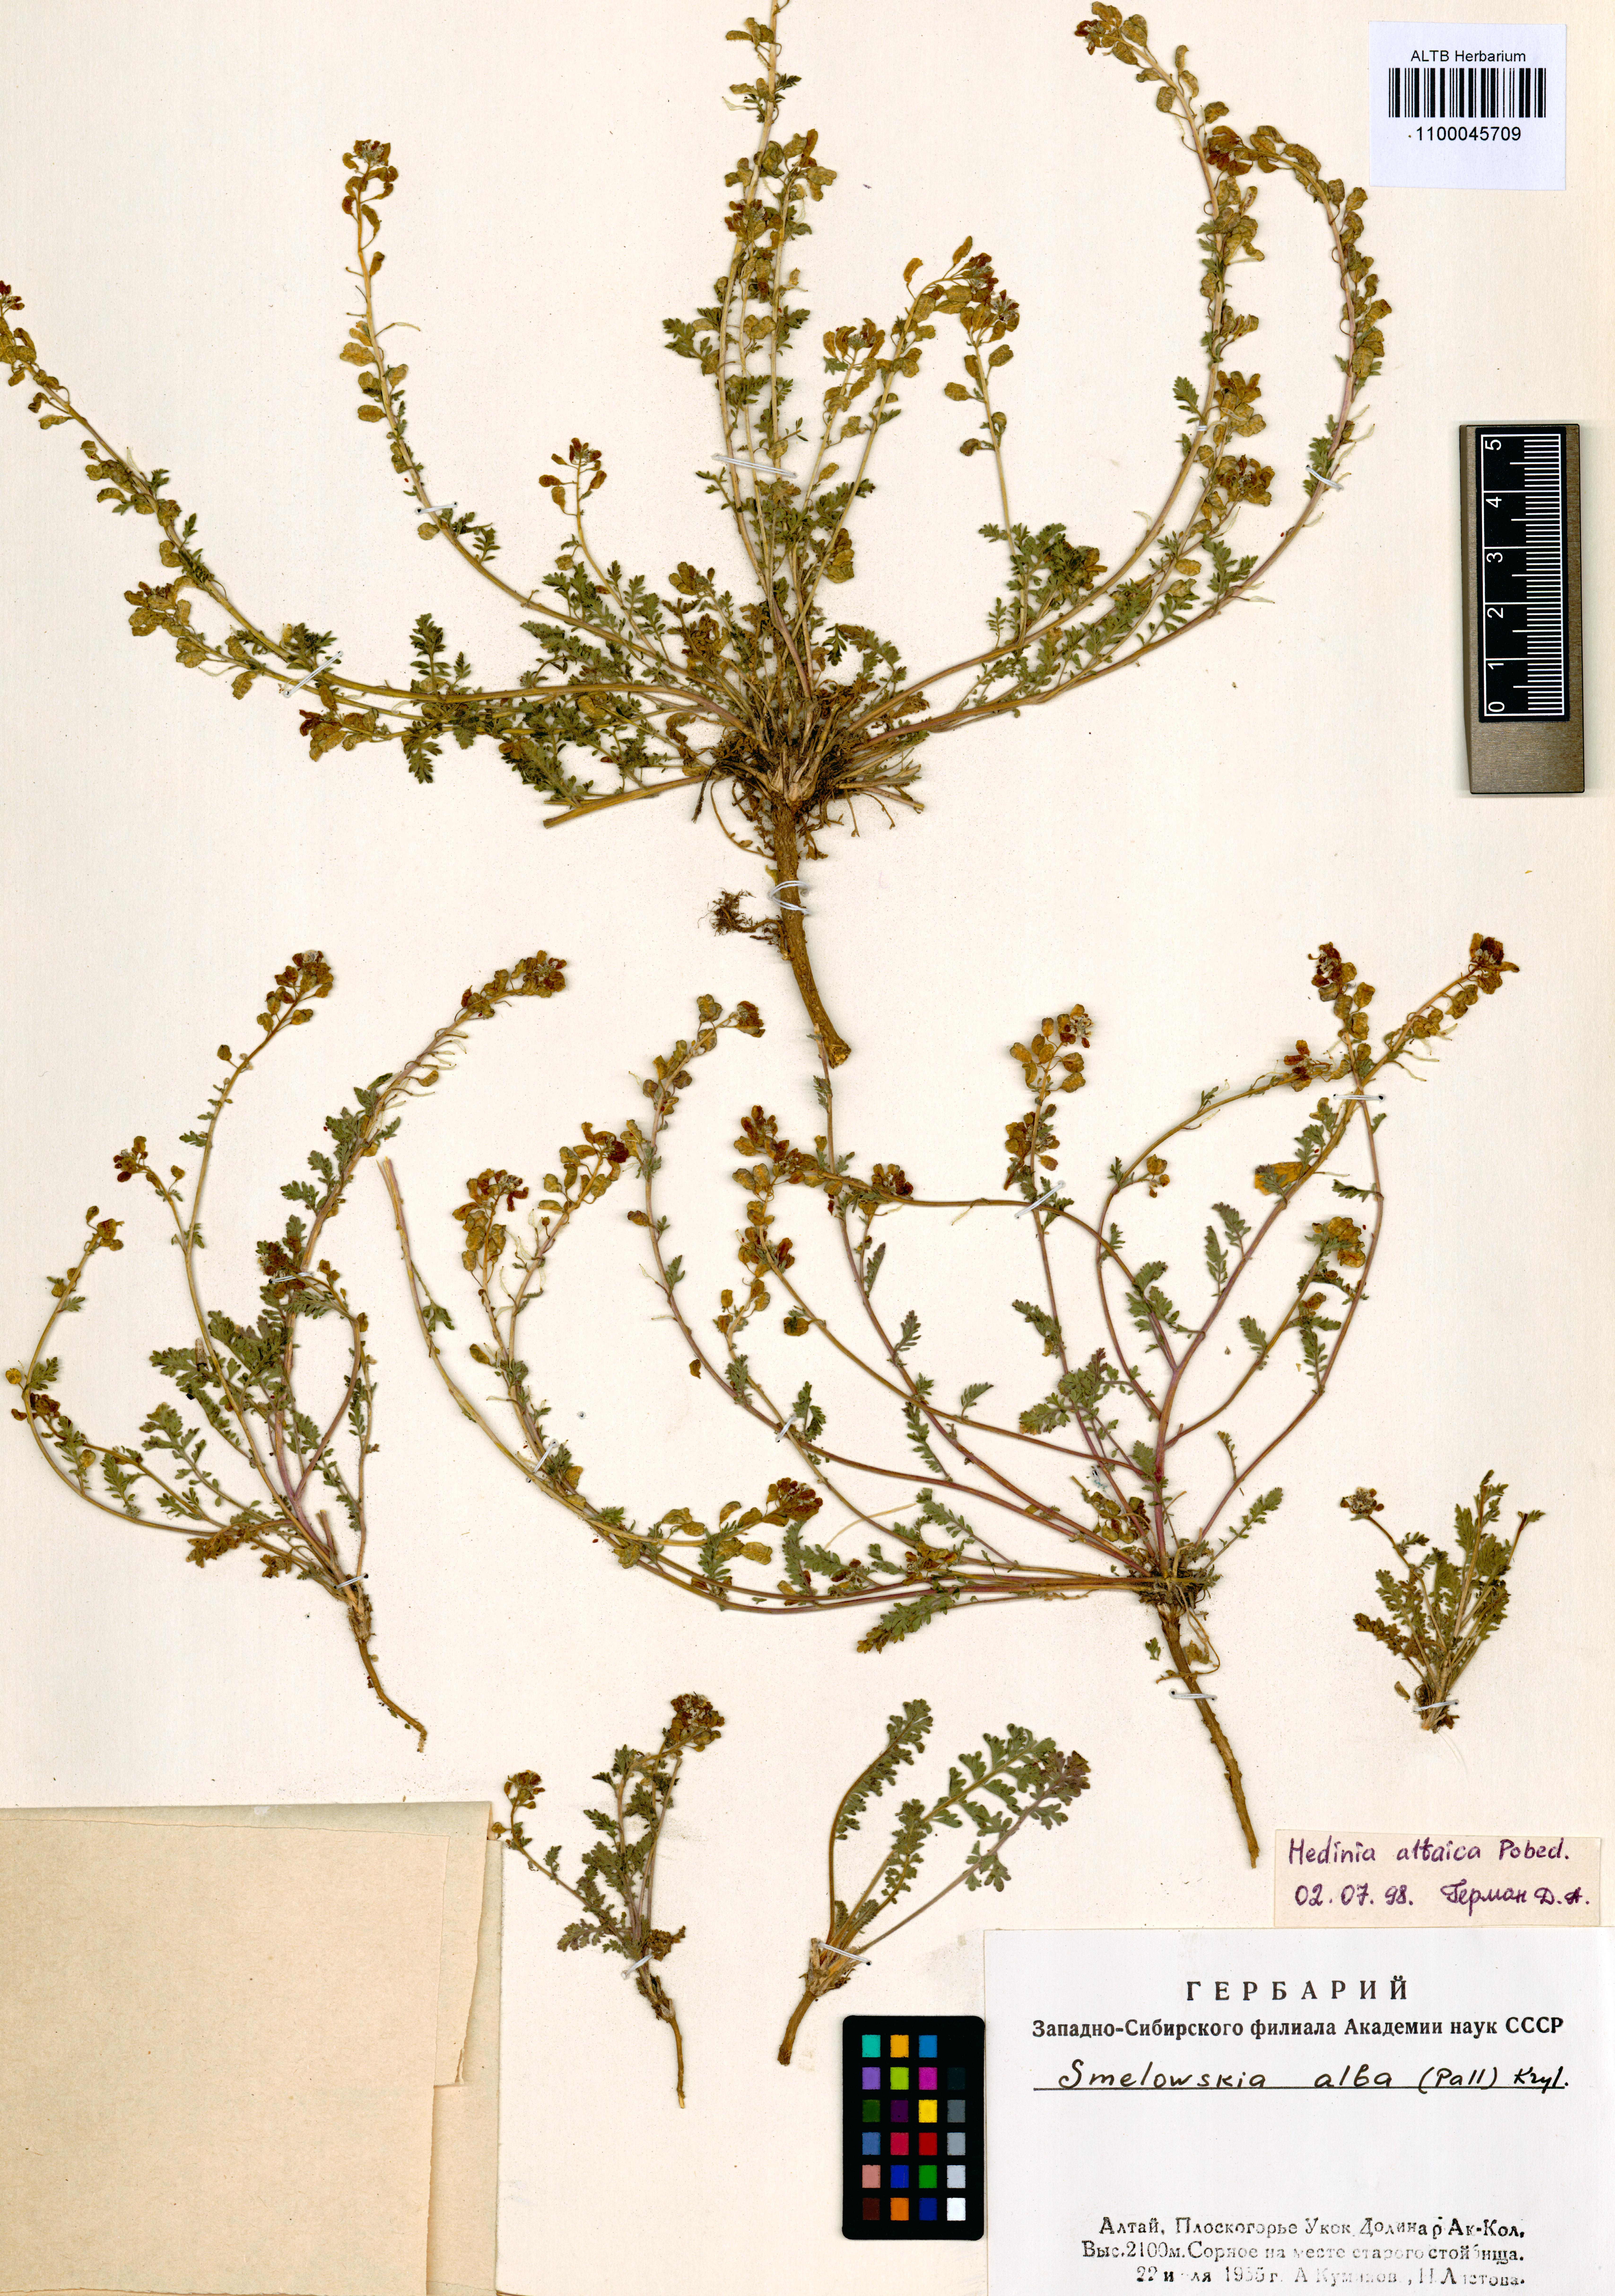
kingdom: Plantae
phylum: Tracheophyta
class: Magnoliopsida
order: Brassicales
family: Brassicaceae
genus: Smelowskia
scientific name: Smelowskia altaica
